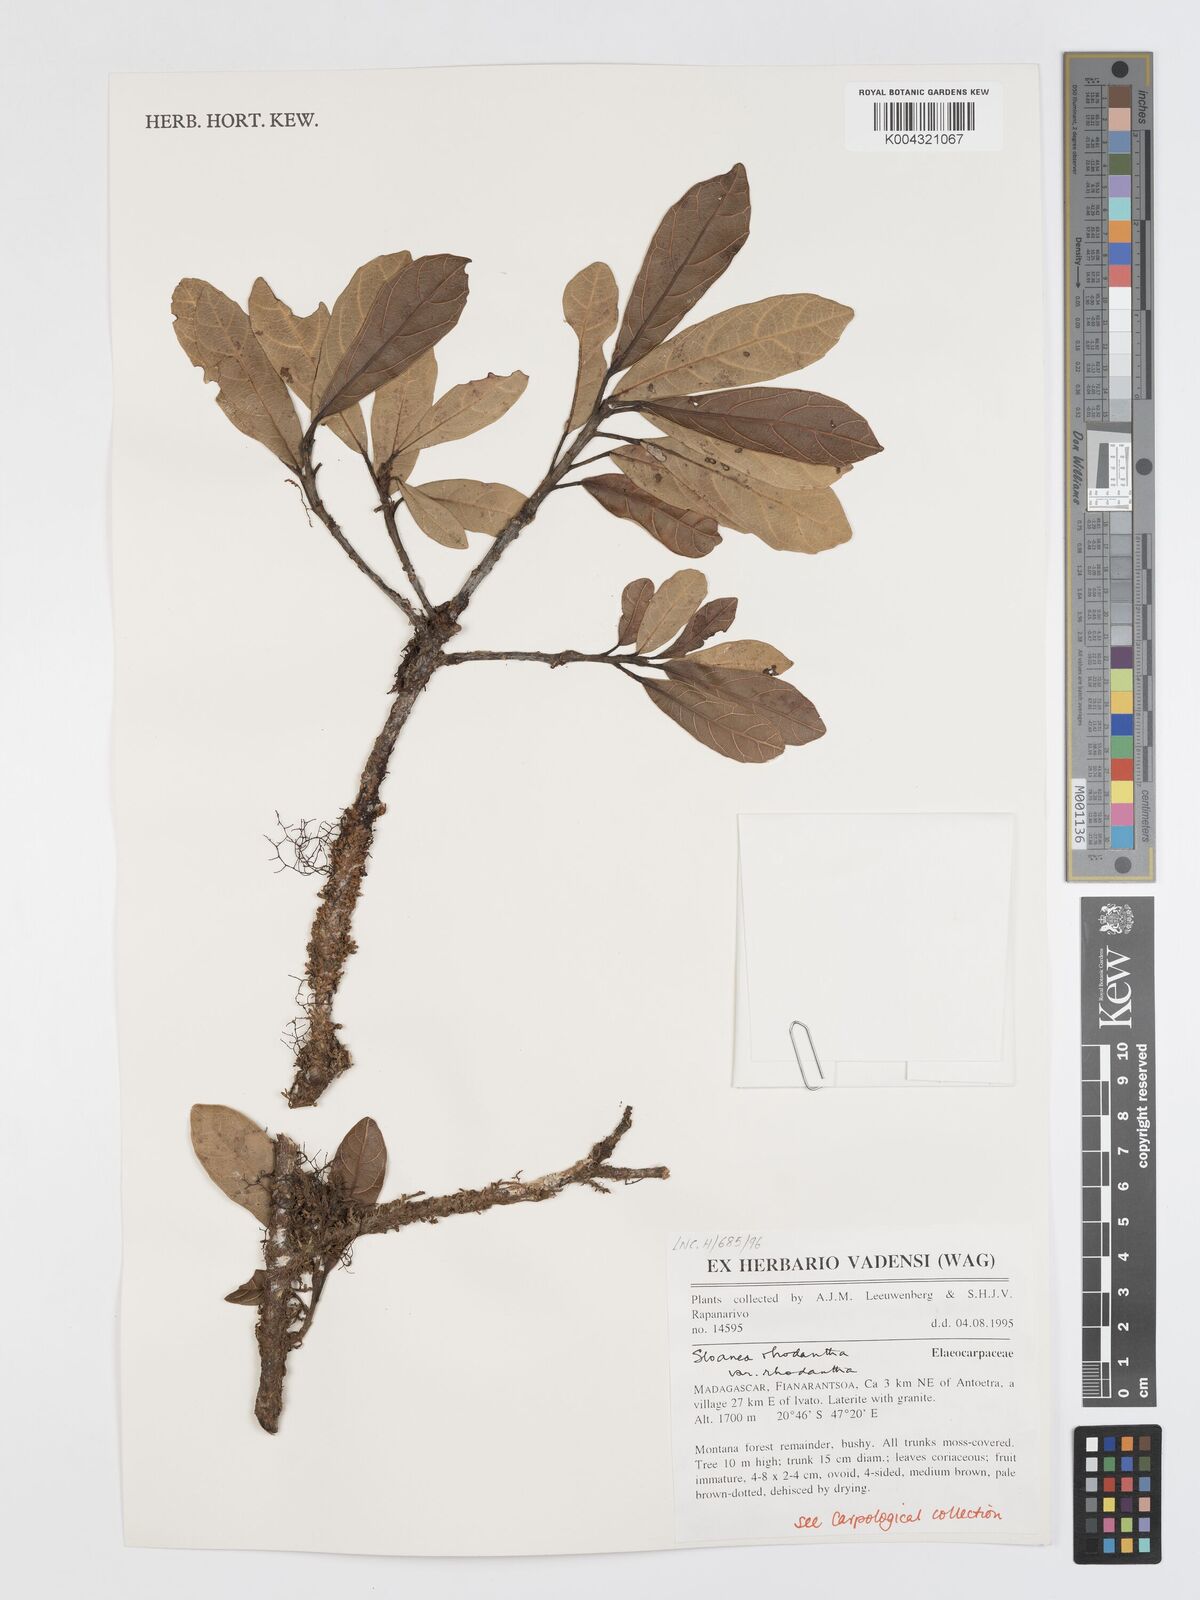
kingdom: Plantae
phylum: Tracheophyta
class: Magnoliopsida
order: Oxalidales
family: Elaeocarpaceae
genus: Sloanea
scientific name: Sloanea rhodantha
